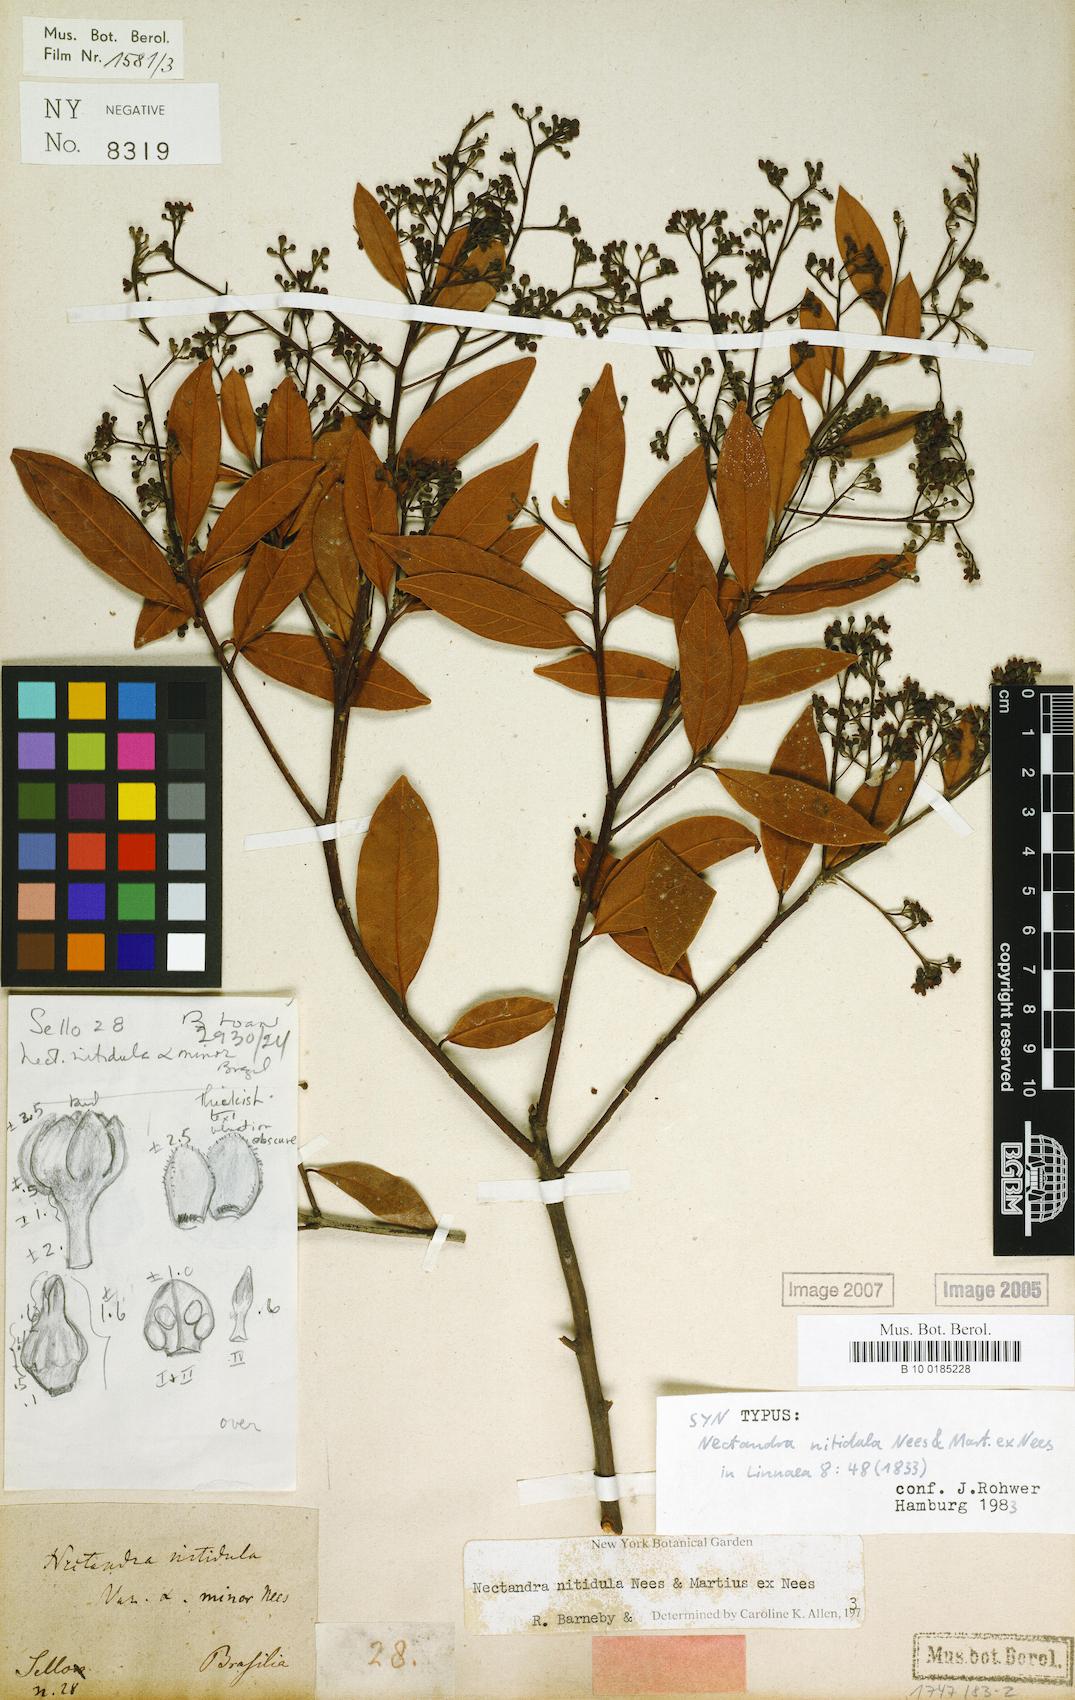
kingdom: Plantae
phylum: Tracheophyta
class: Magnoliopsida
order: Laurales
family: Lauraceae
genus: Nectandra
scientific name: Nectandra nitidula
